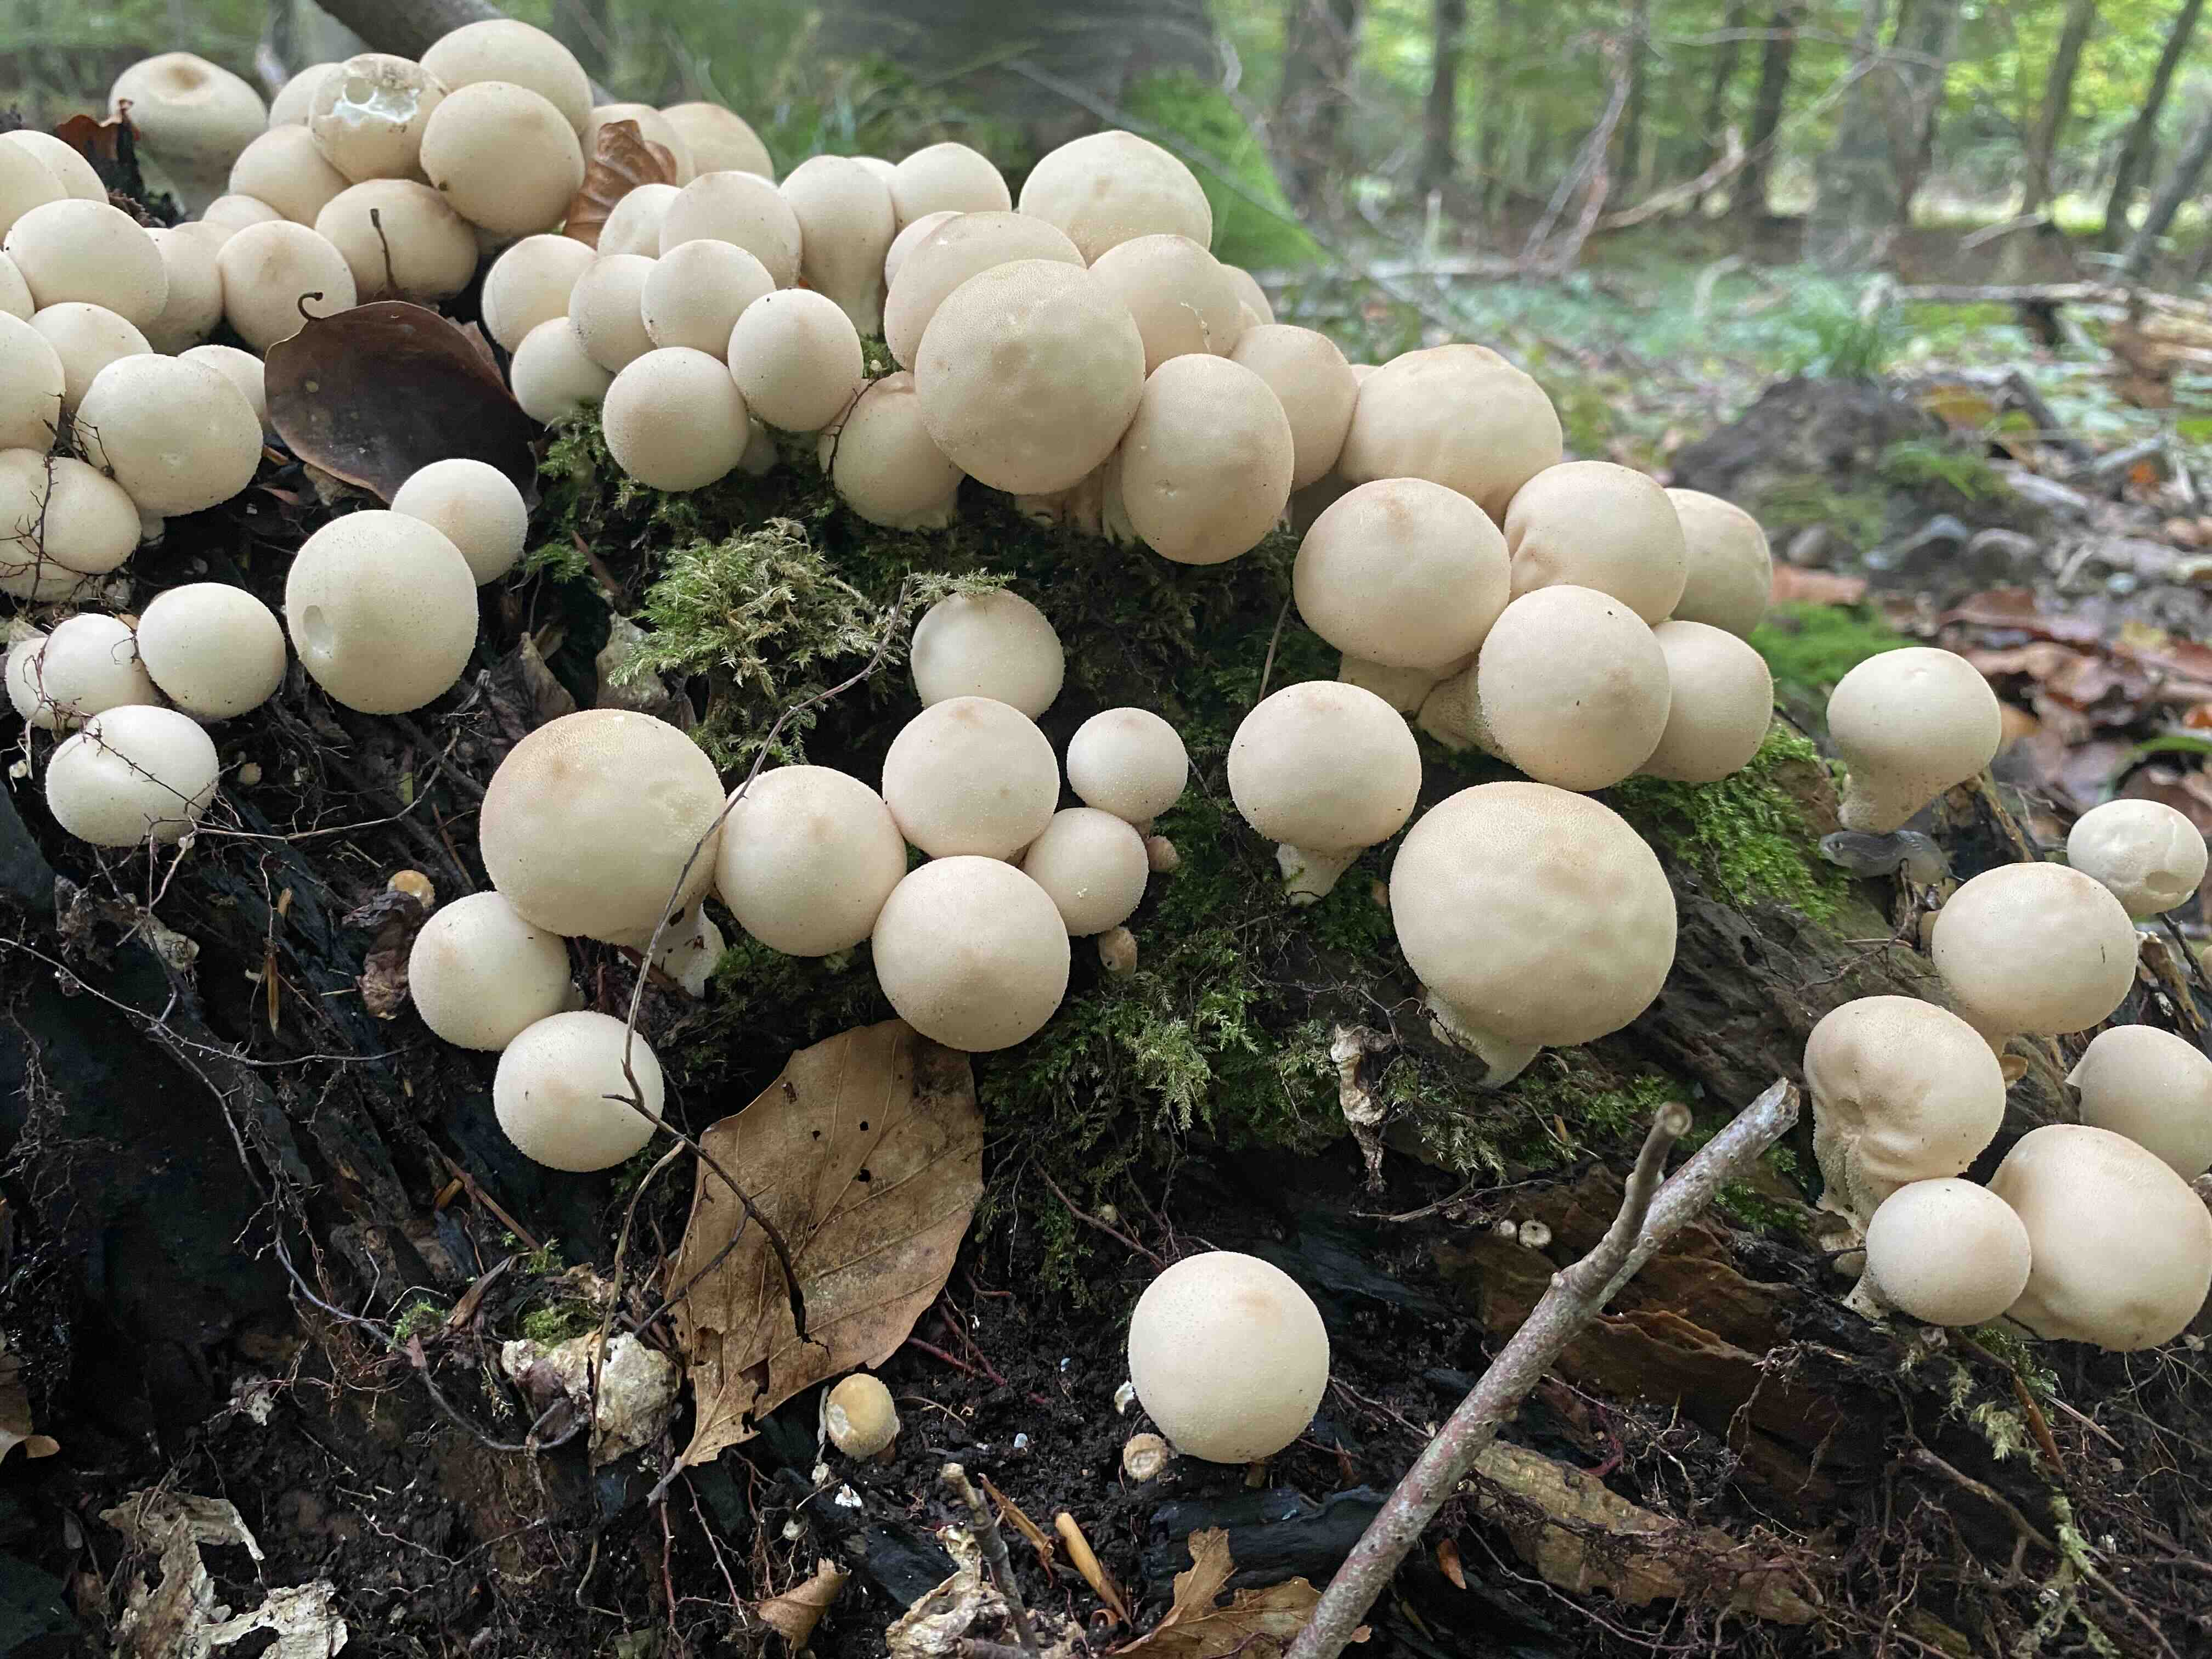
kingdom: Fungi
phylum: Basidiomycota
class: Agaricomycetes
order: Agaricales
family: Lycoperdaceae
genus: Apioperdon
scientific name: Apioperdon pyriforme
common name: pære-støvbold
